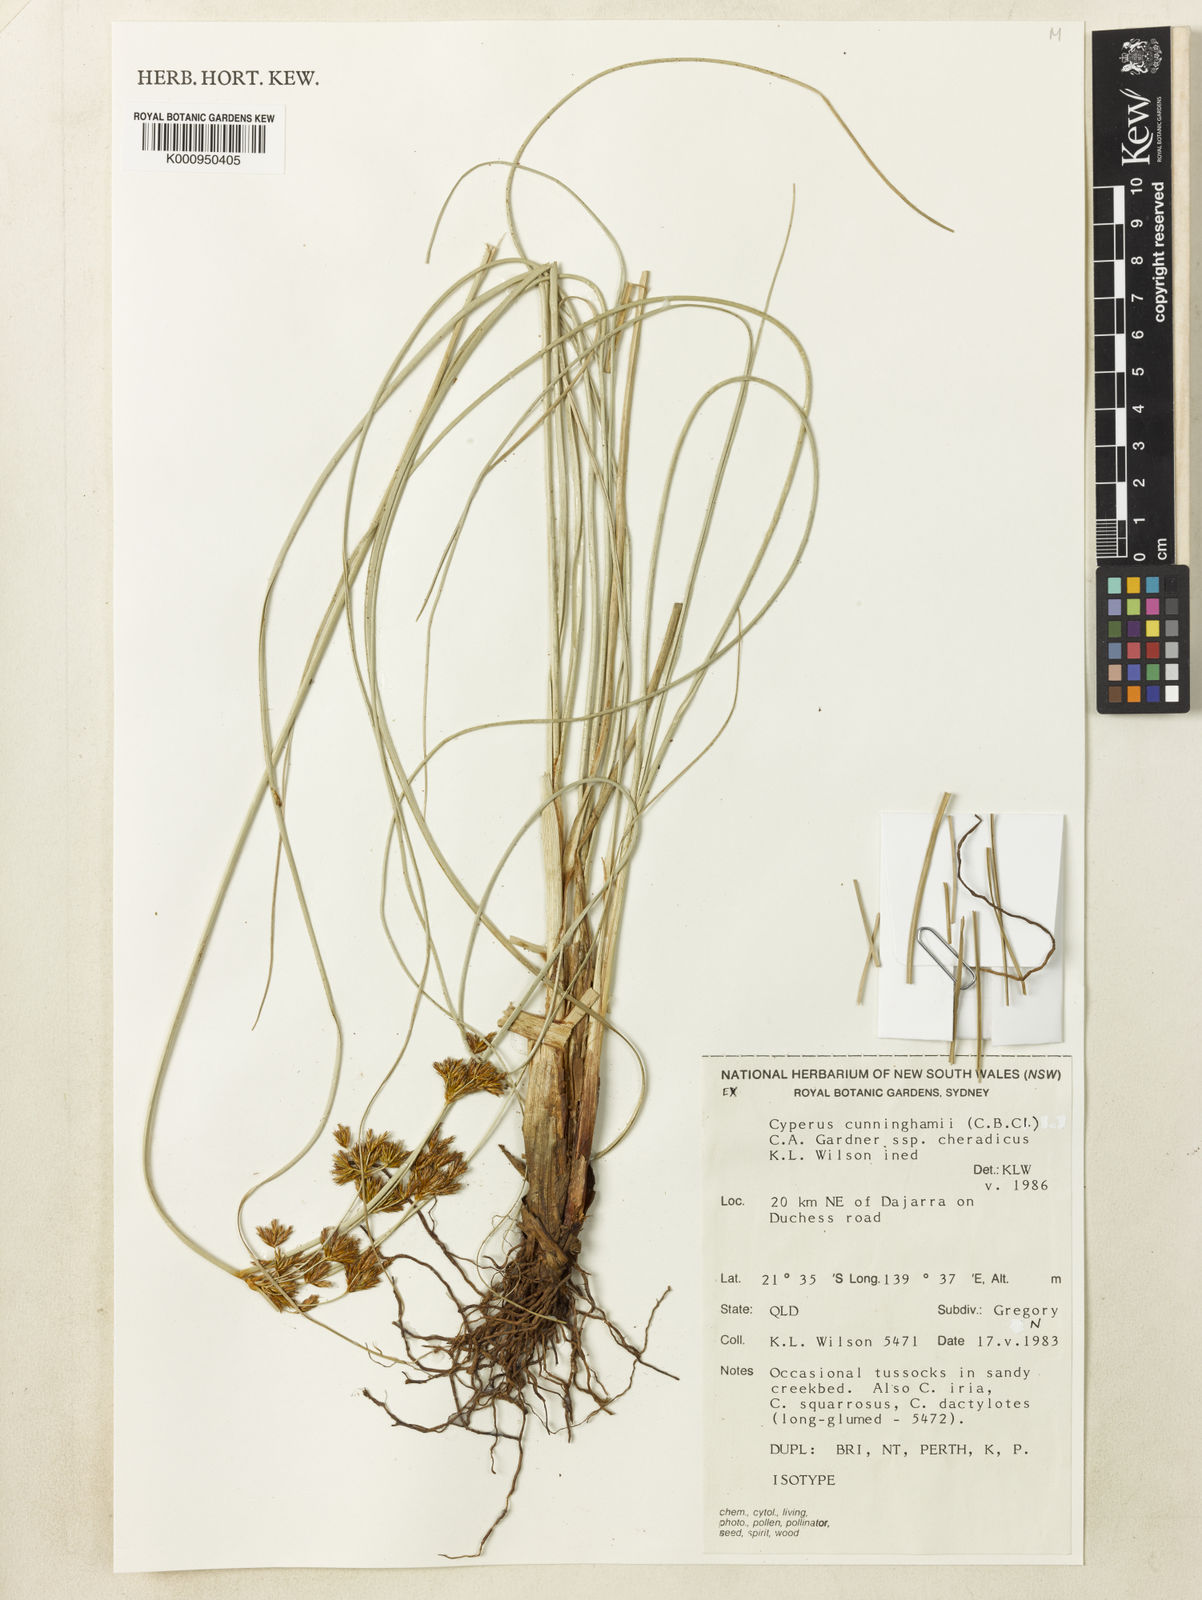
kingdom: Plantae
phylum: Tracheophyta
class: Liliopsida
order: Poales
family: Cyperaceae
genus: Cyperus
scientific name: Cyperus cunninghamii
